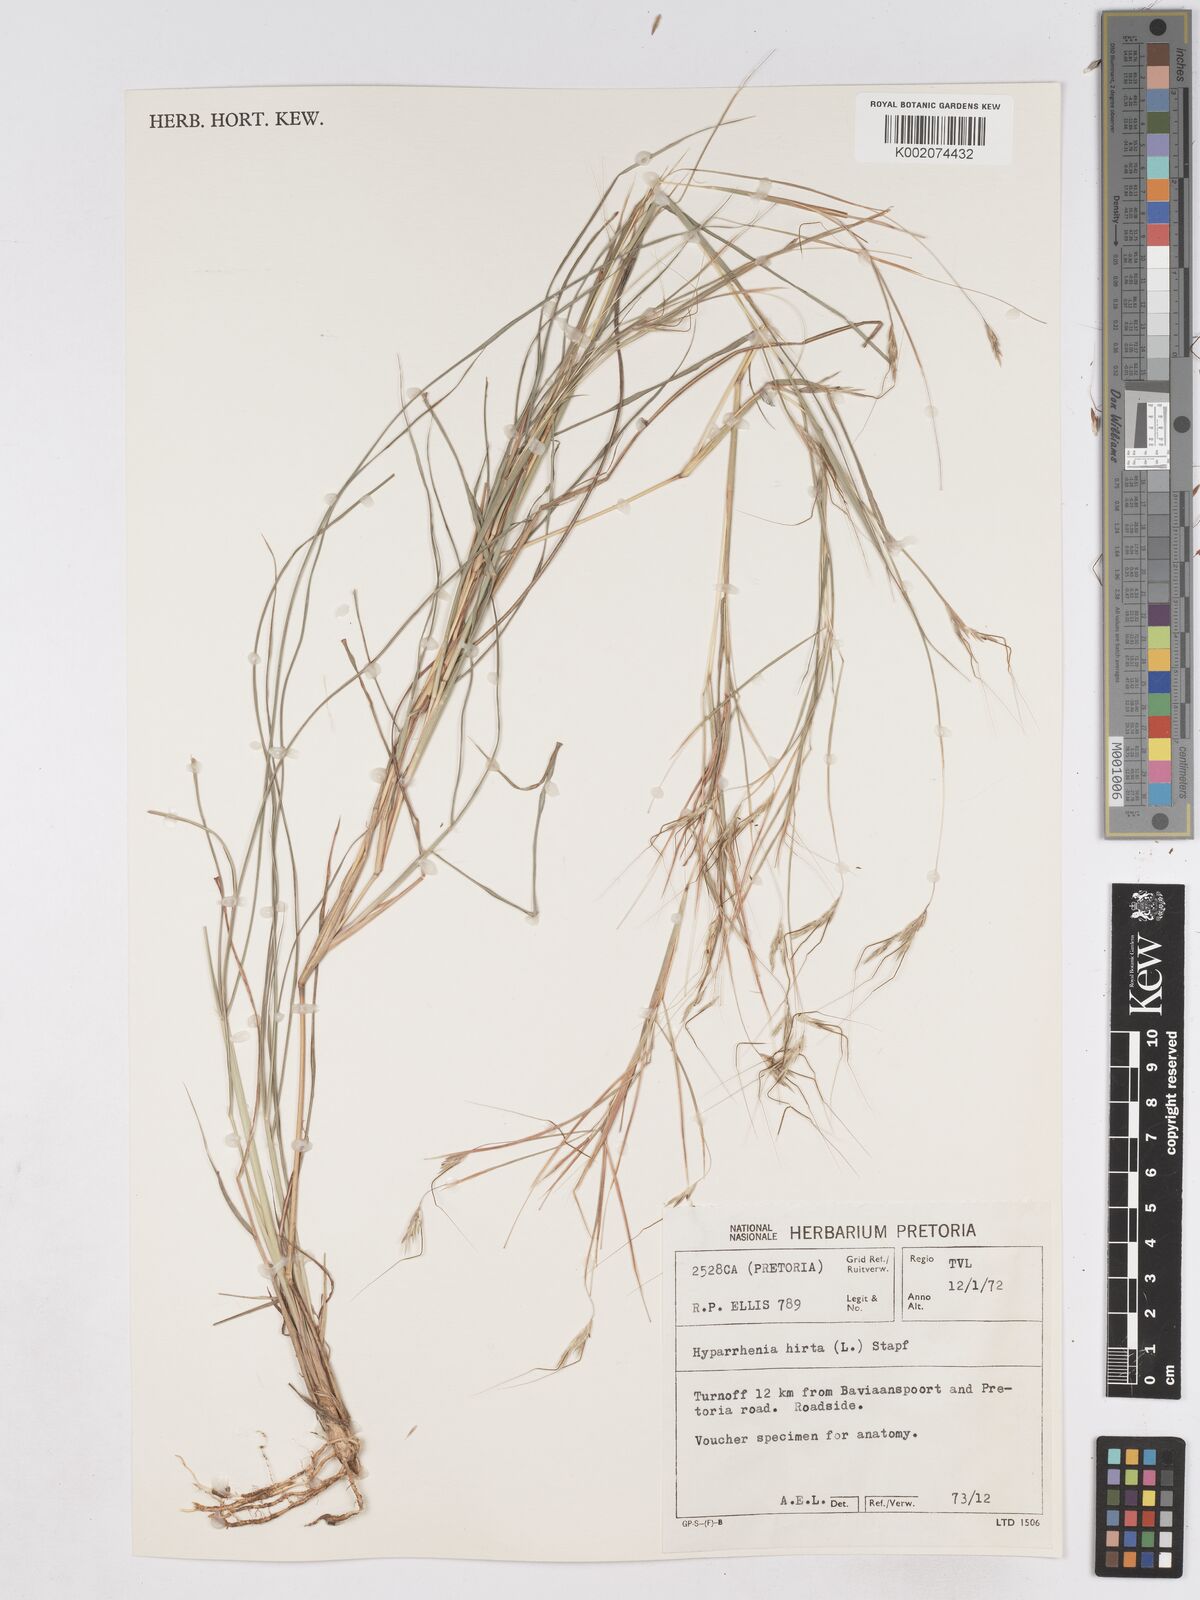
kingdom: Plantae
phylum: Tracheophyta
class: Liliopsida
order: Poales
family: Poaceae
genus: Hyparrhenia
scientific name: Hyparrhenia hirta
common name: Thatching grass
